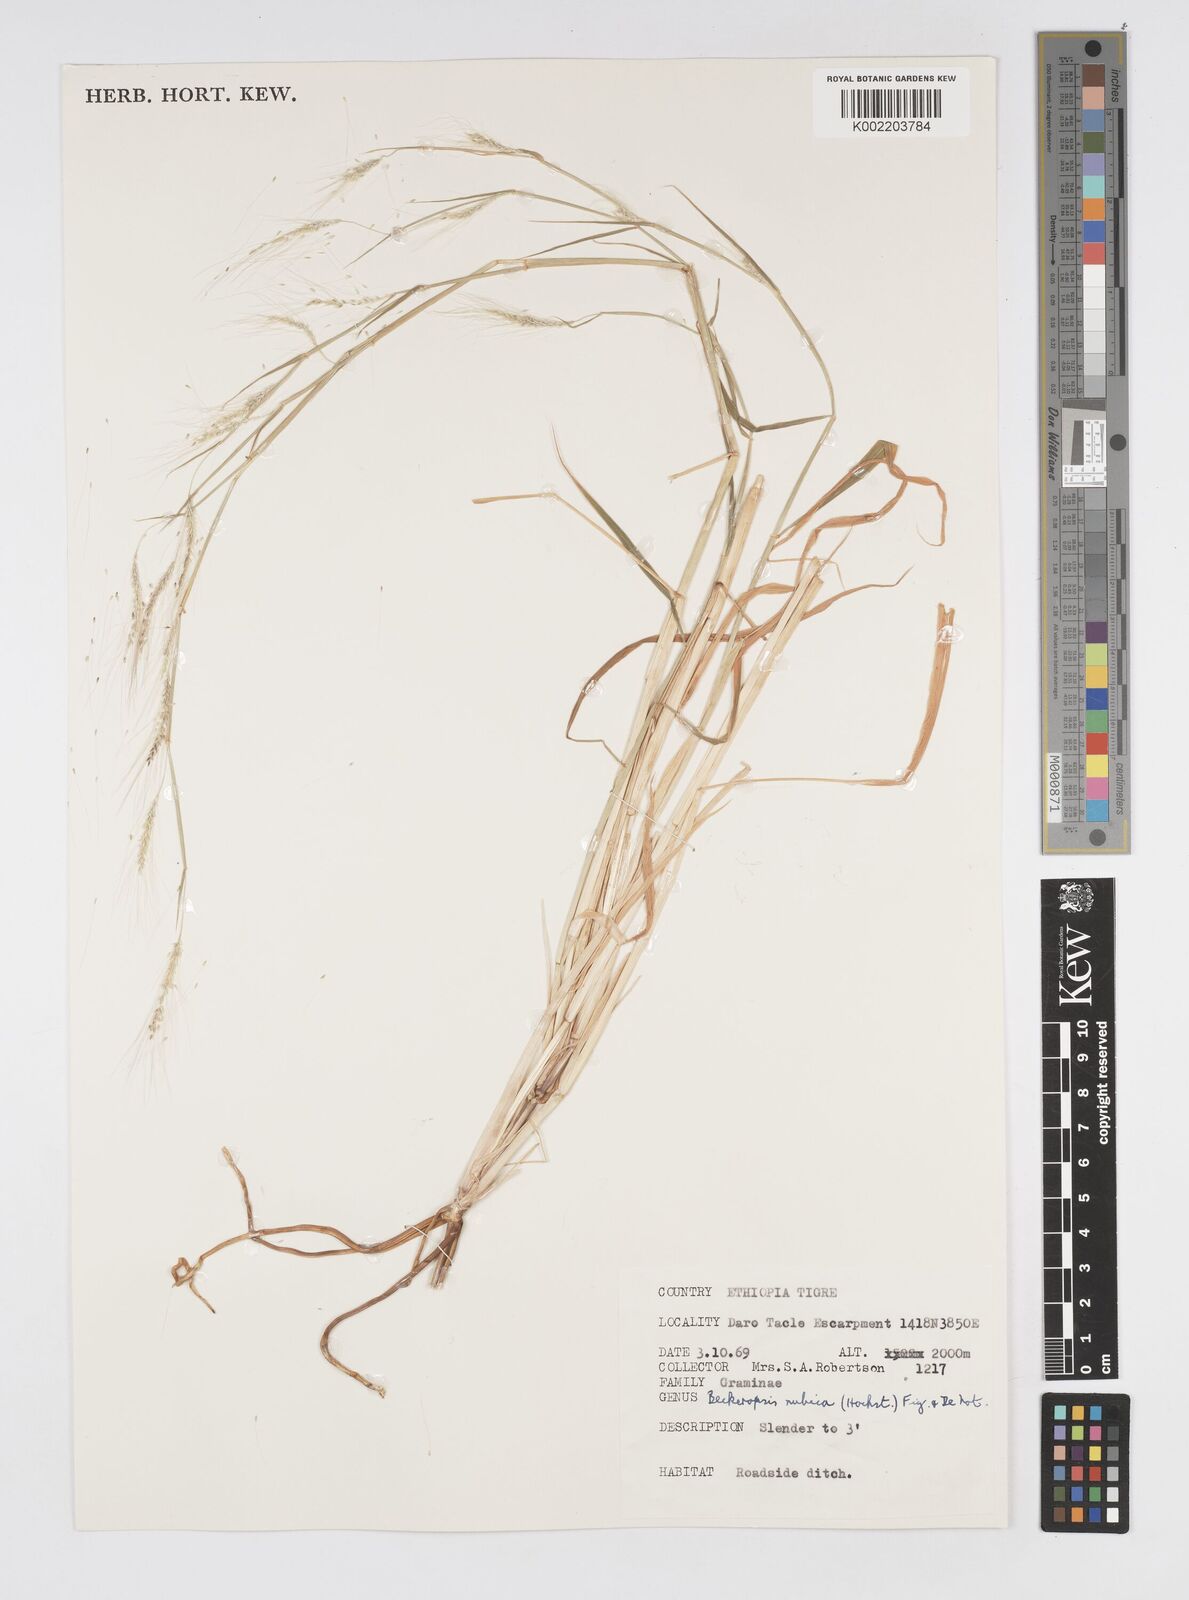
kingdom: Plantae
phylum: Tracheophyta
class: Liliopsida
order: Poales
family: Poaceae
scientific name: Poaceae
